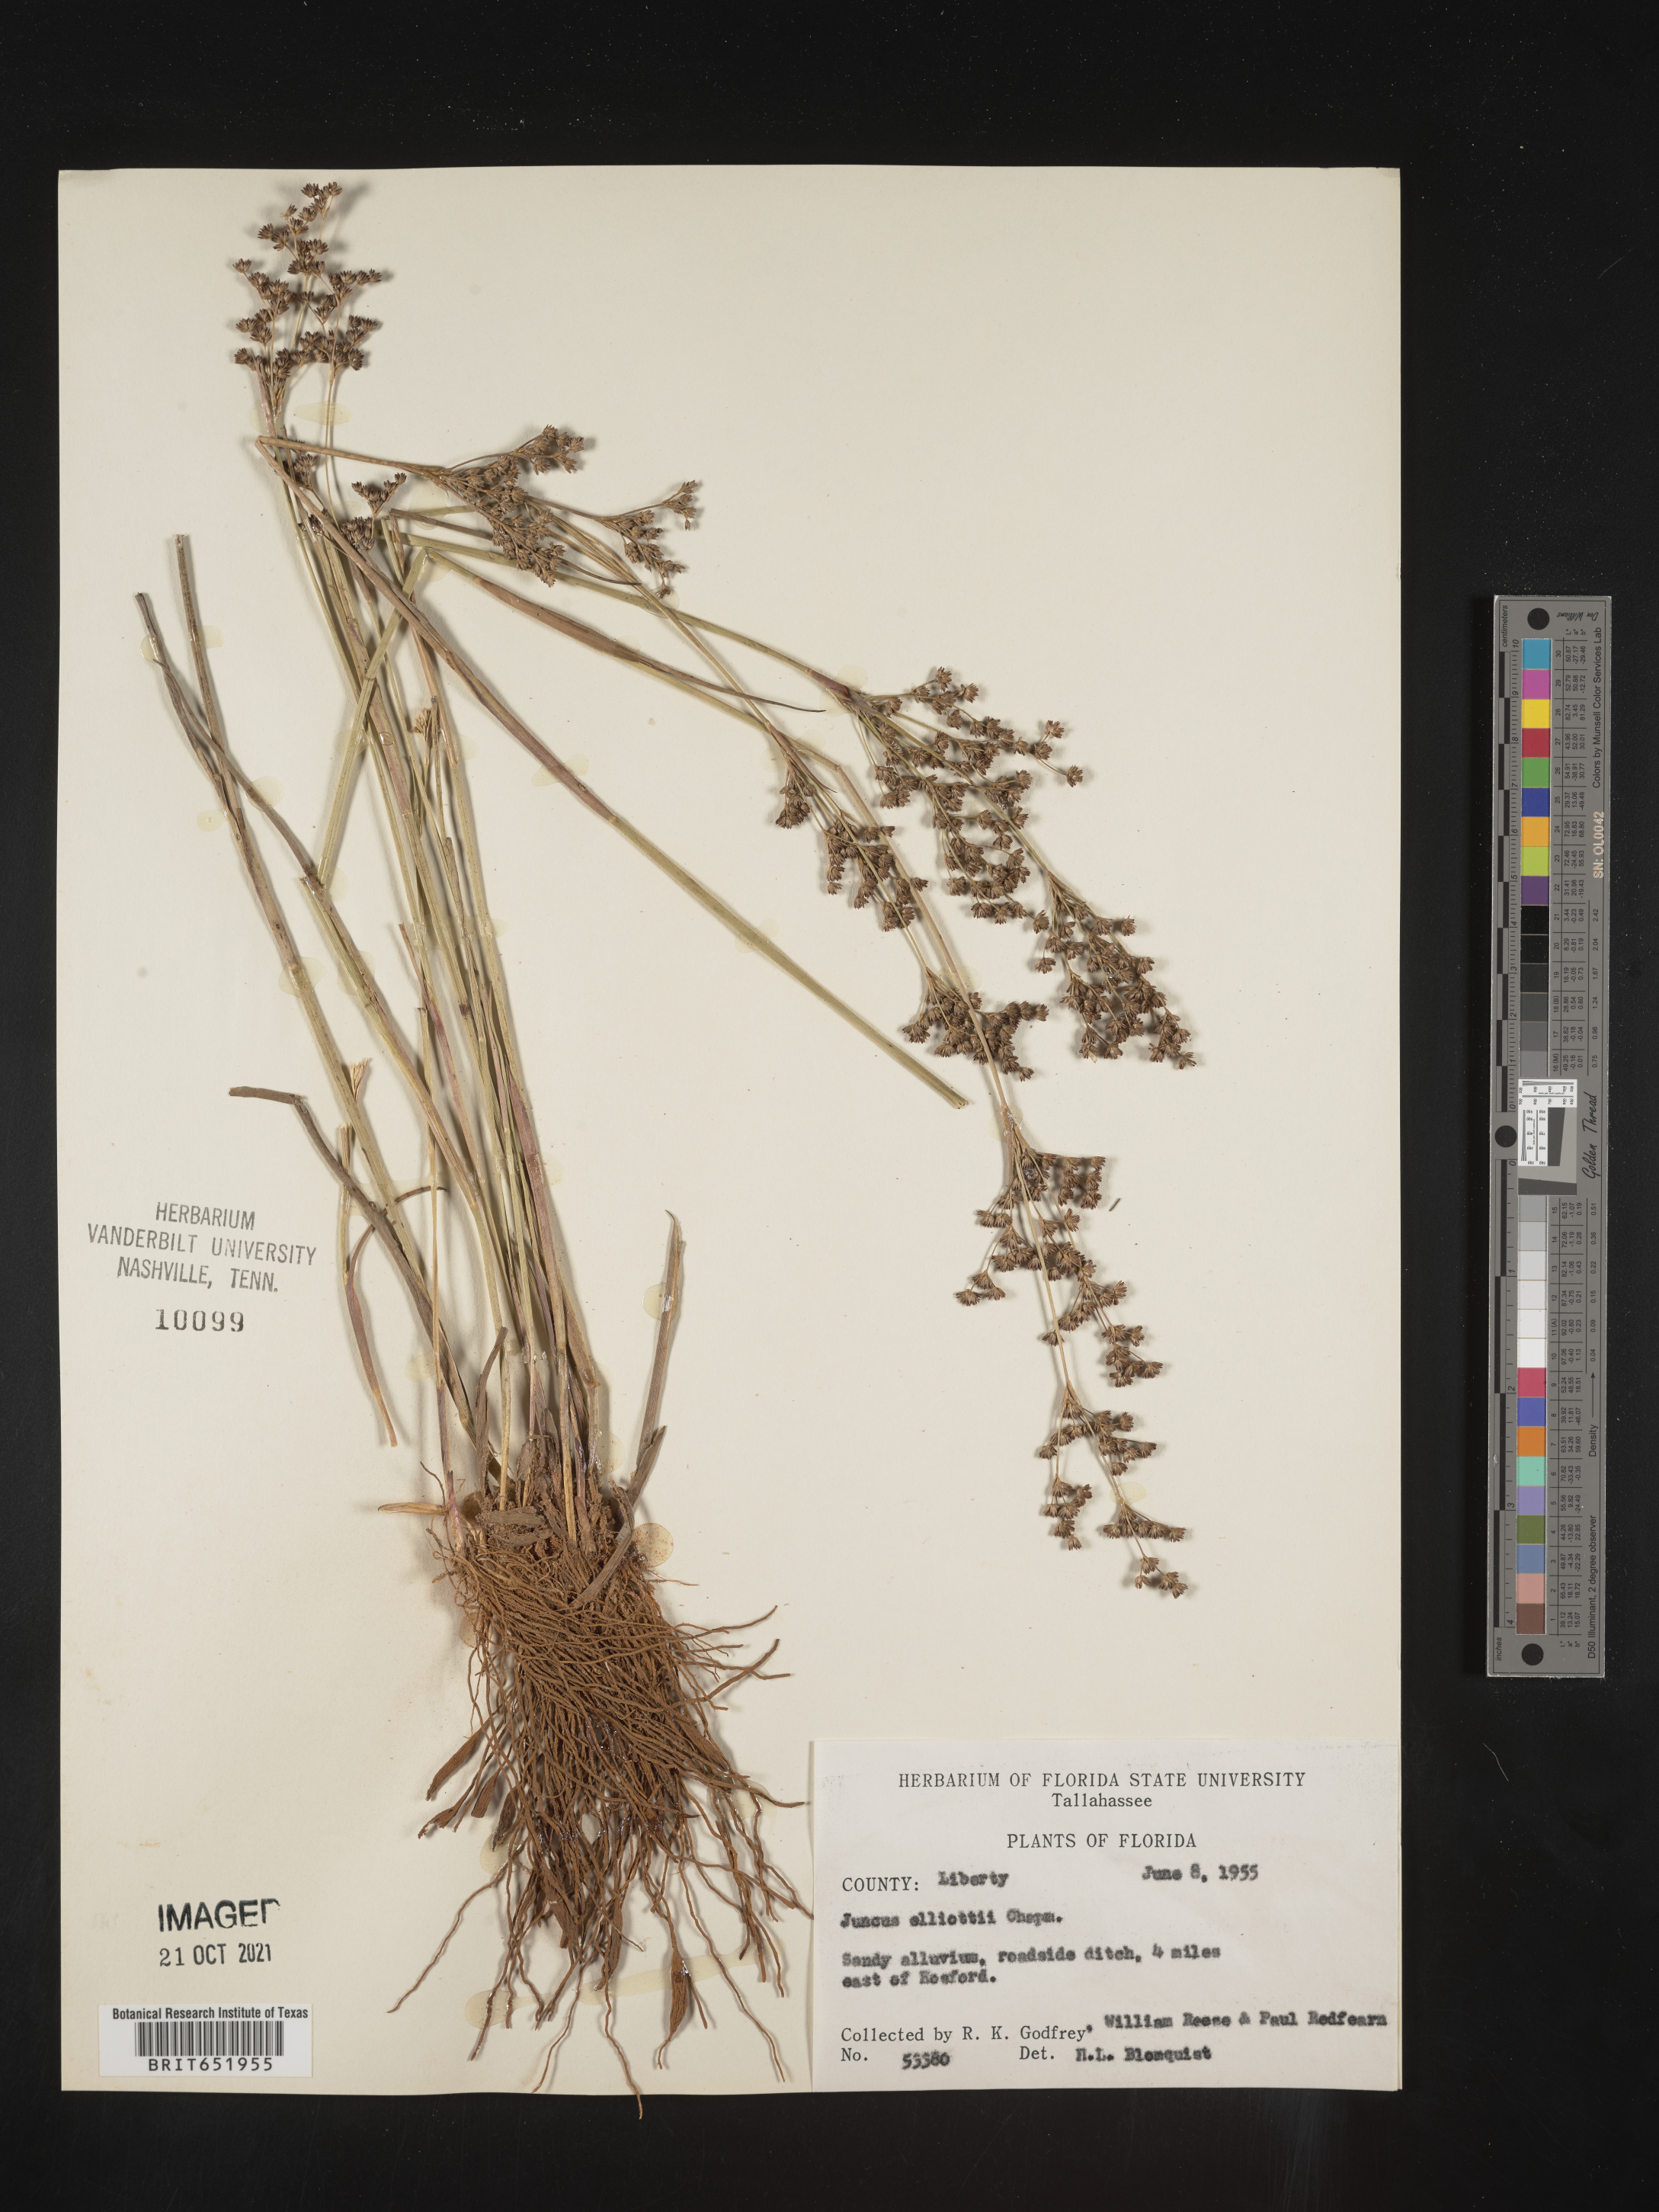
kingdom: Plantae
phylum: Tracheophyta
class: Liliopsida
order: Poales
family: Juncaceae
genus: Juncus
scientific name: Juncus elliottii
